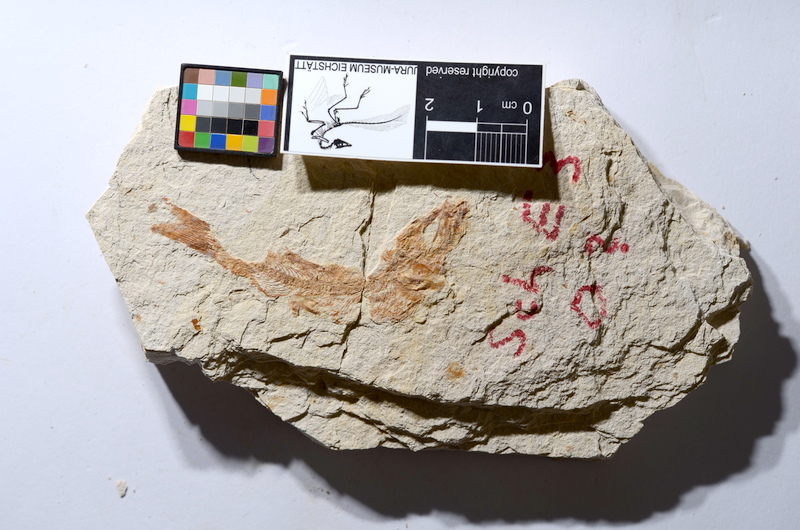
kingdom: Animalia
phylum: Chordata
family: Ascalaboidae
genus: Tharsis
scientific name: Tharsis dubius
